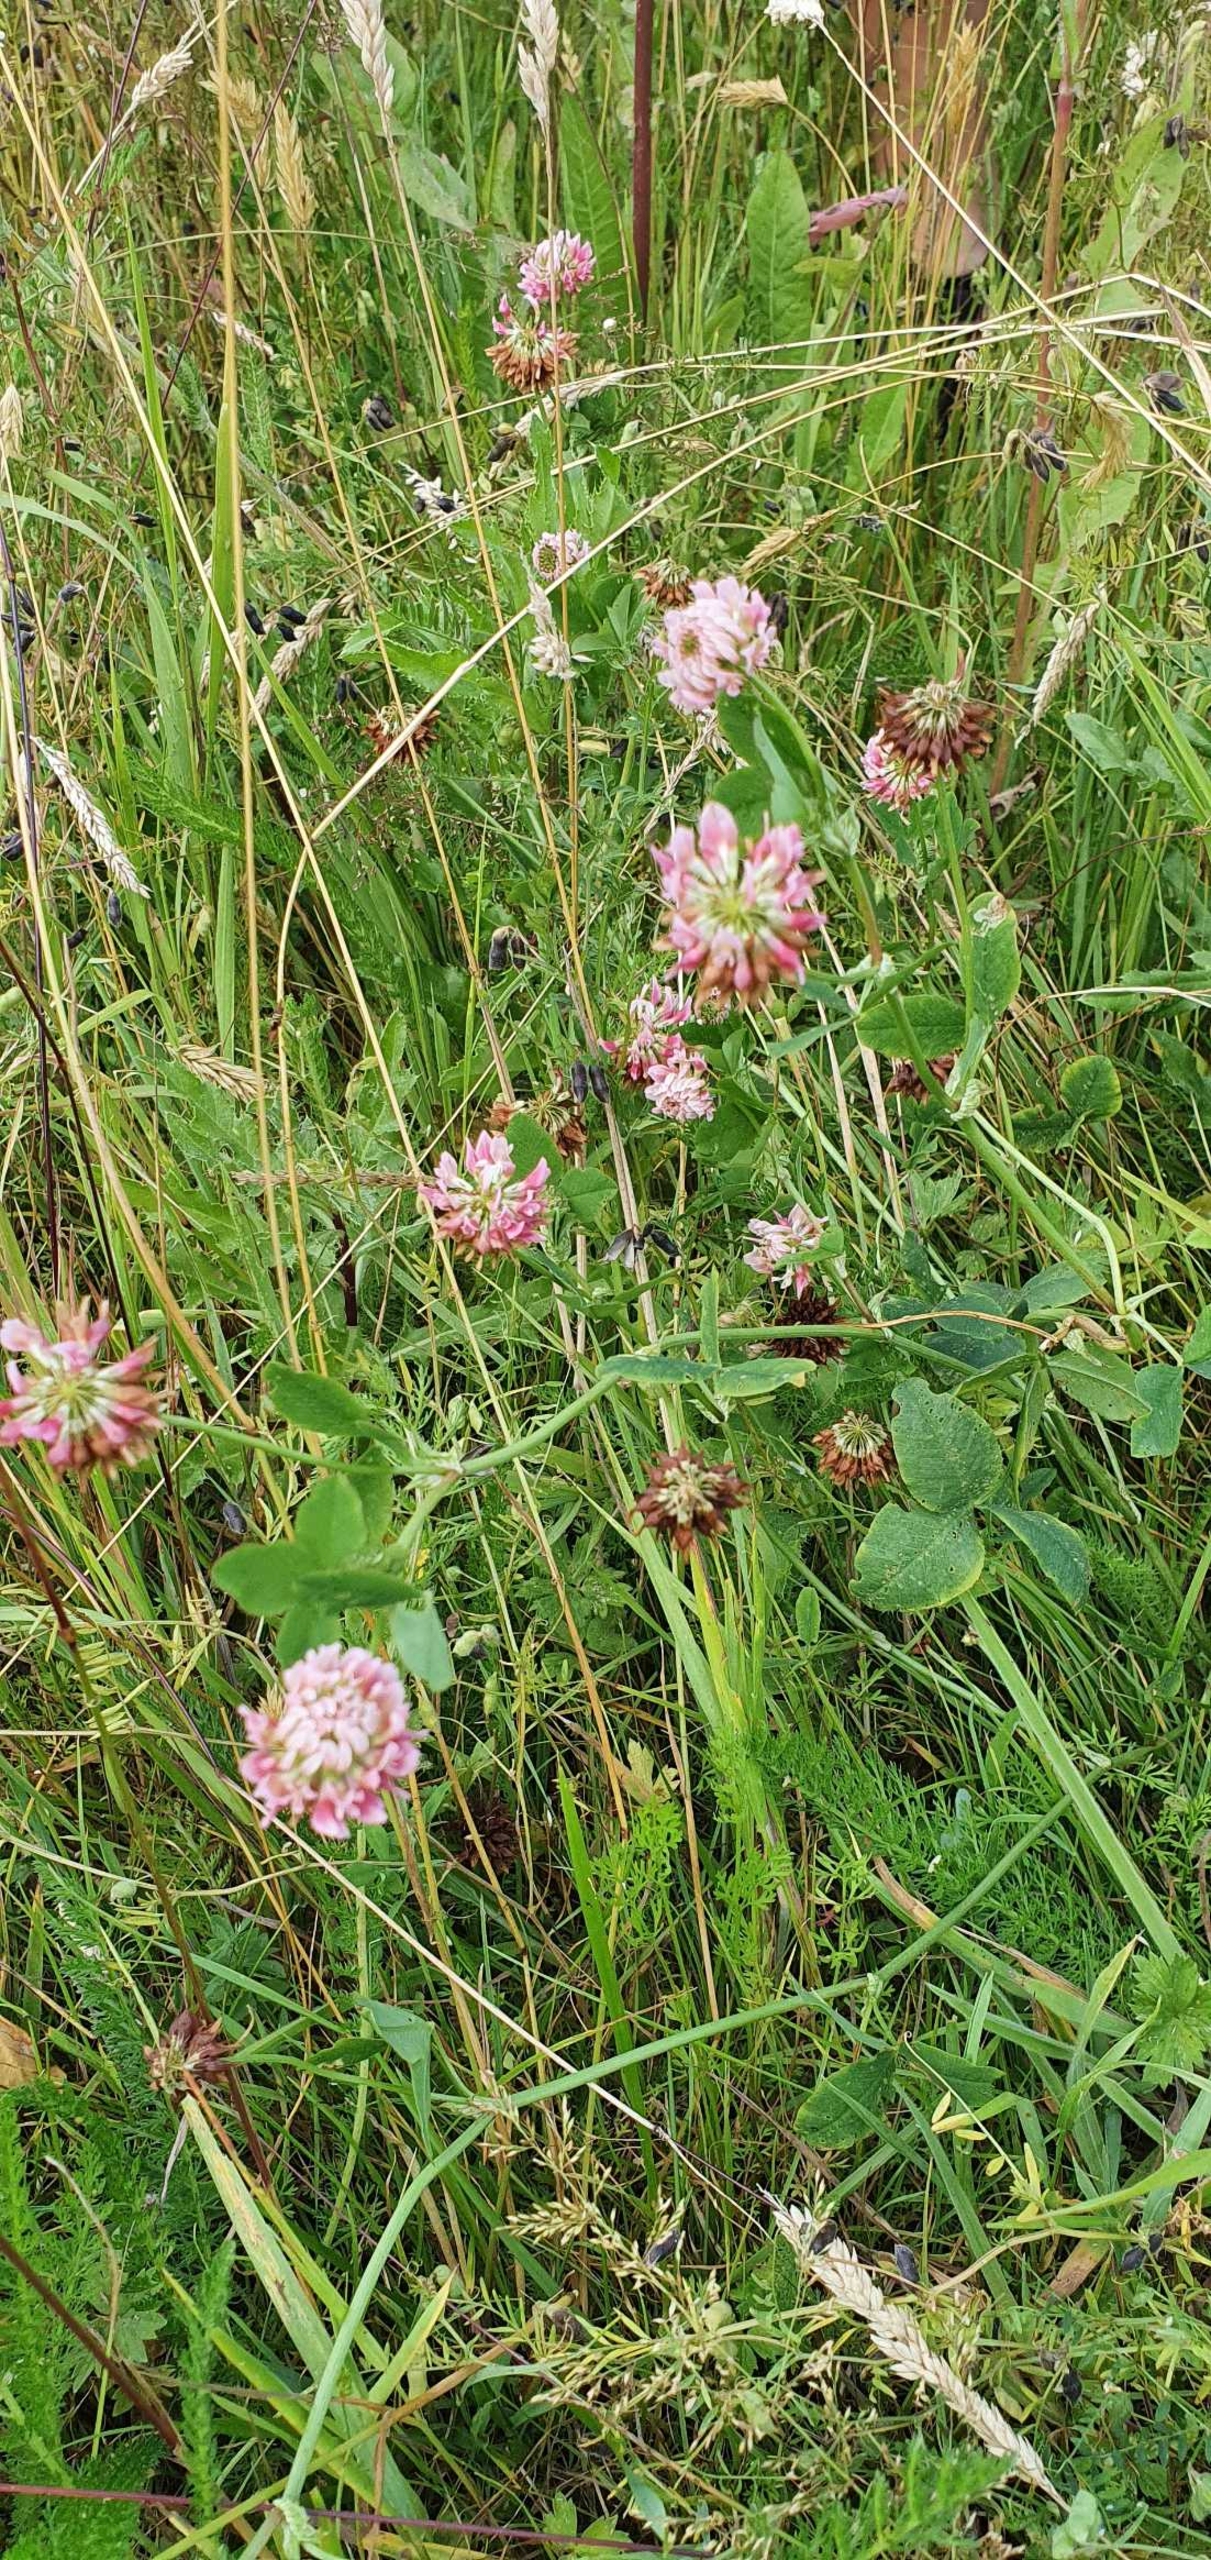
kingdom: Plantae
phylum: Tracheophyta
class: Magnoliopsida
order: Fabales
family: Fabaceae
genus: Trifolium
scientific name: Trifolium hybridum
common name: Alsike-kløver
